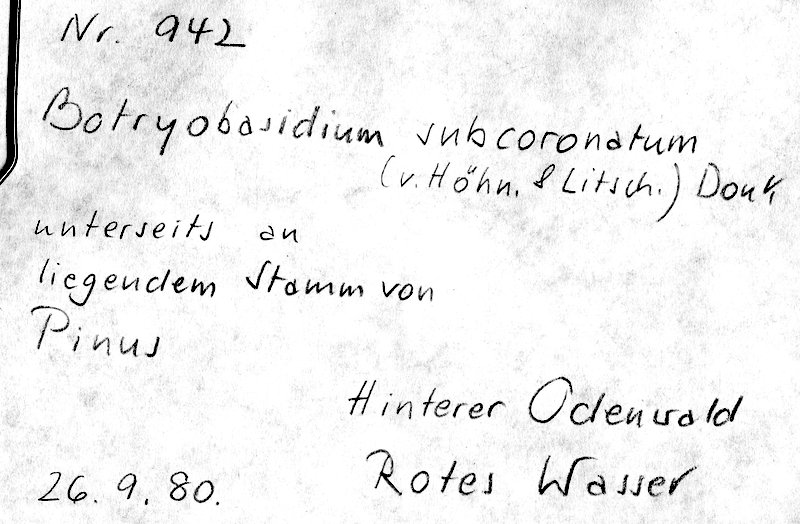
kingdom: Fungi
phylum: Basidiomycota
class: Agaricomycetes
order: Cantharellales
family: Botryobasidiaceae
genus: Botryobasidium
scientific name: Botryobasidium subcoronatum
